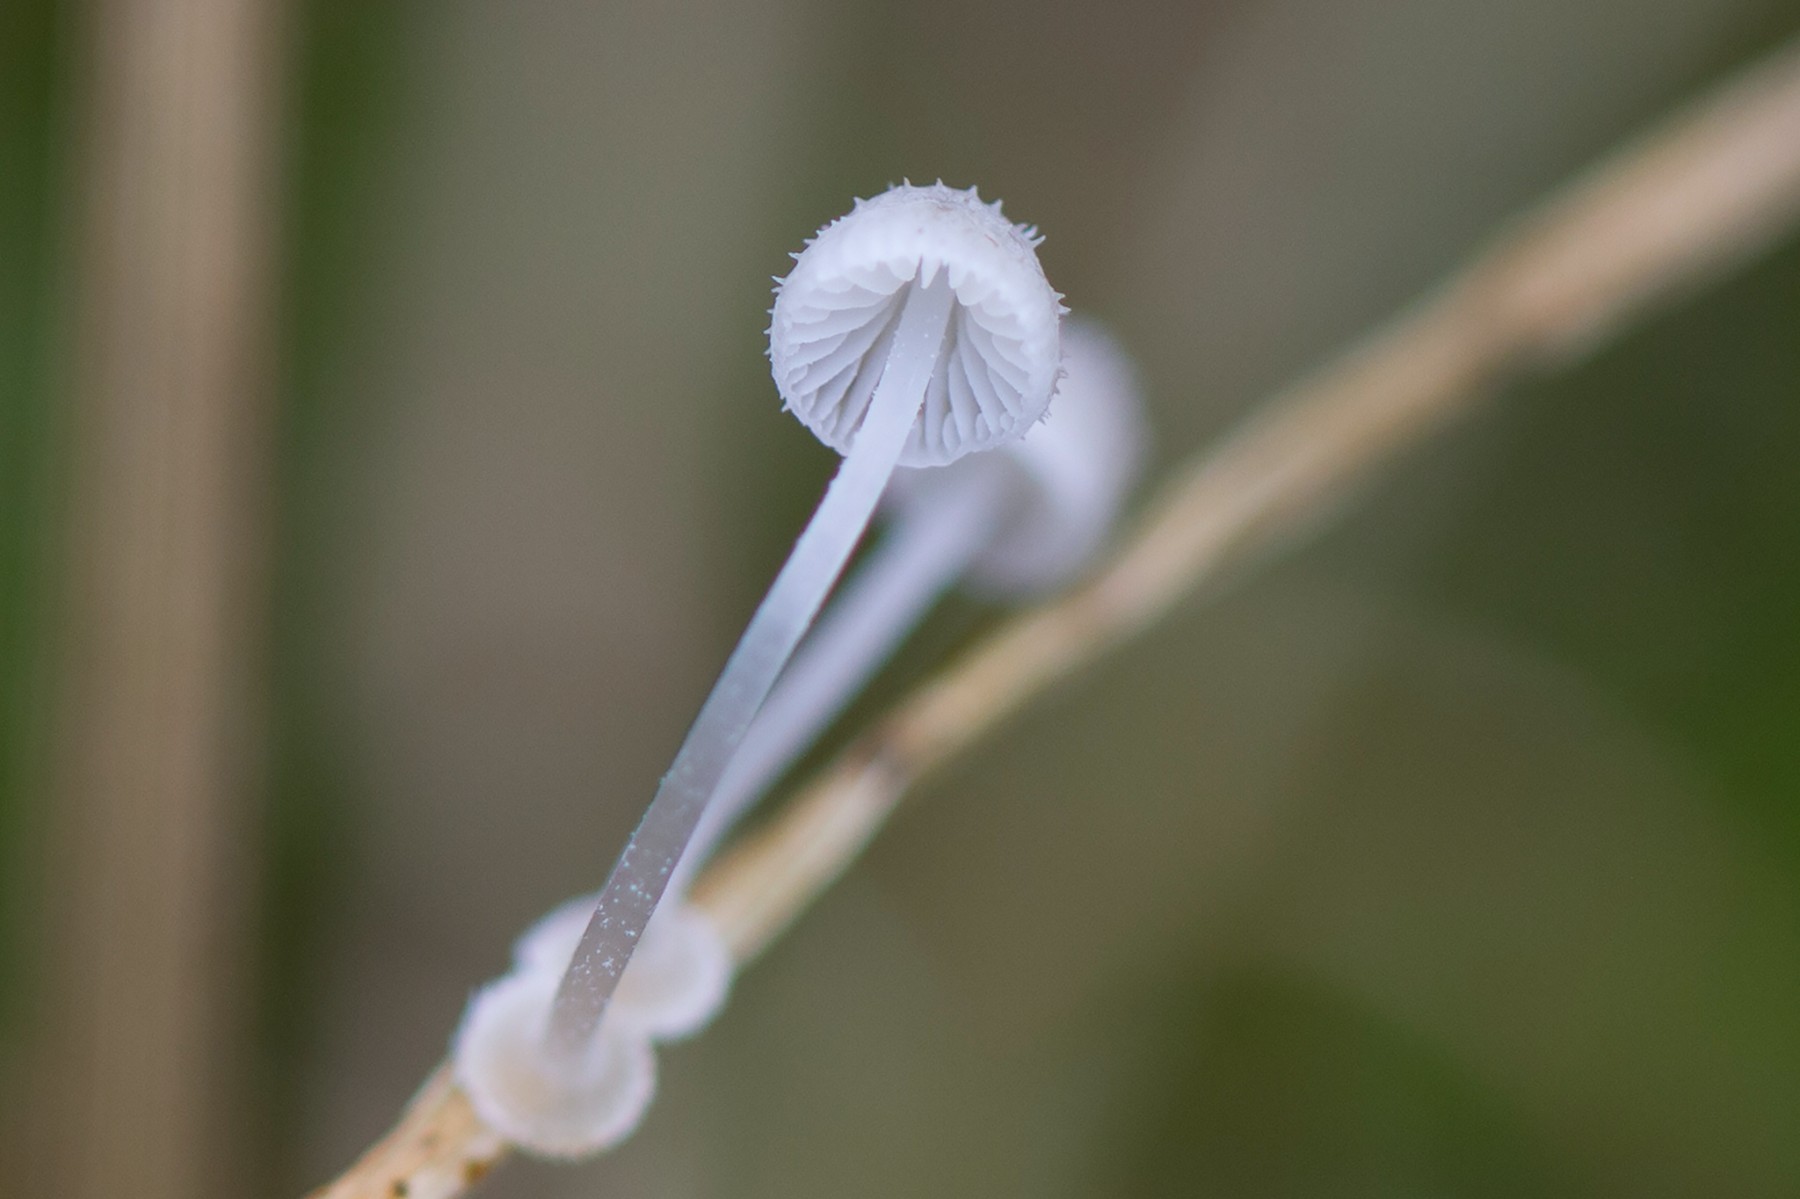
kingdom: Fungi
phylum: Basidiomycota
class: Agaricomycetes
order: Agaricales
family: Mycenaceae
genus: Mycena
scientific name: Mycena stylobates
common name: fureskivet huesvamp
